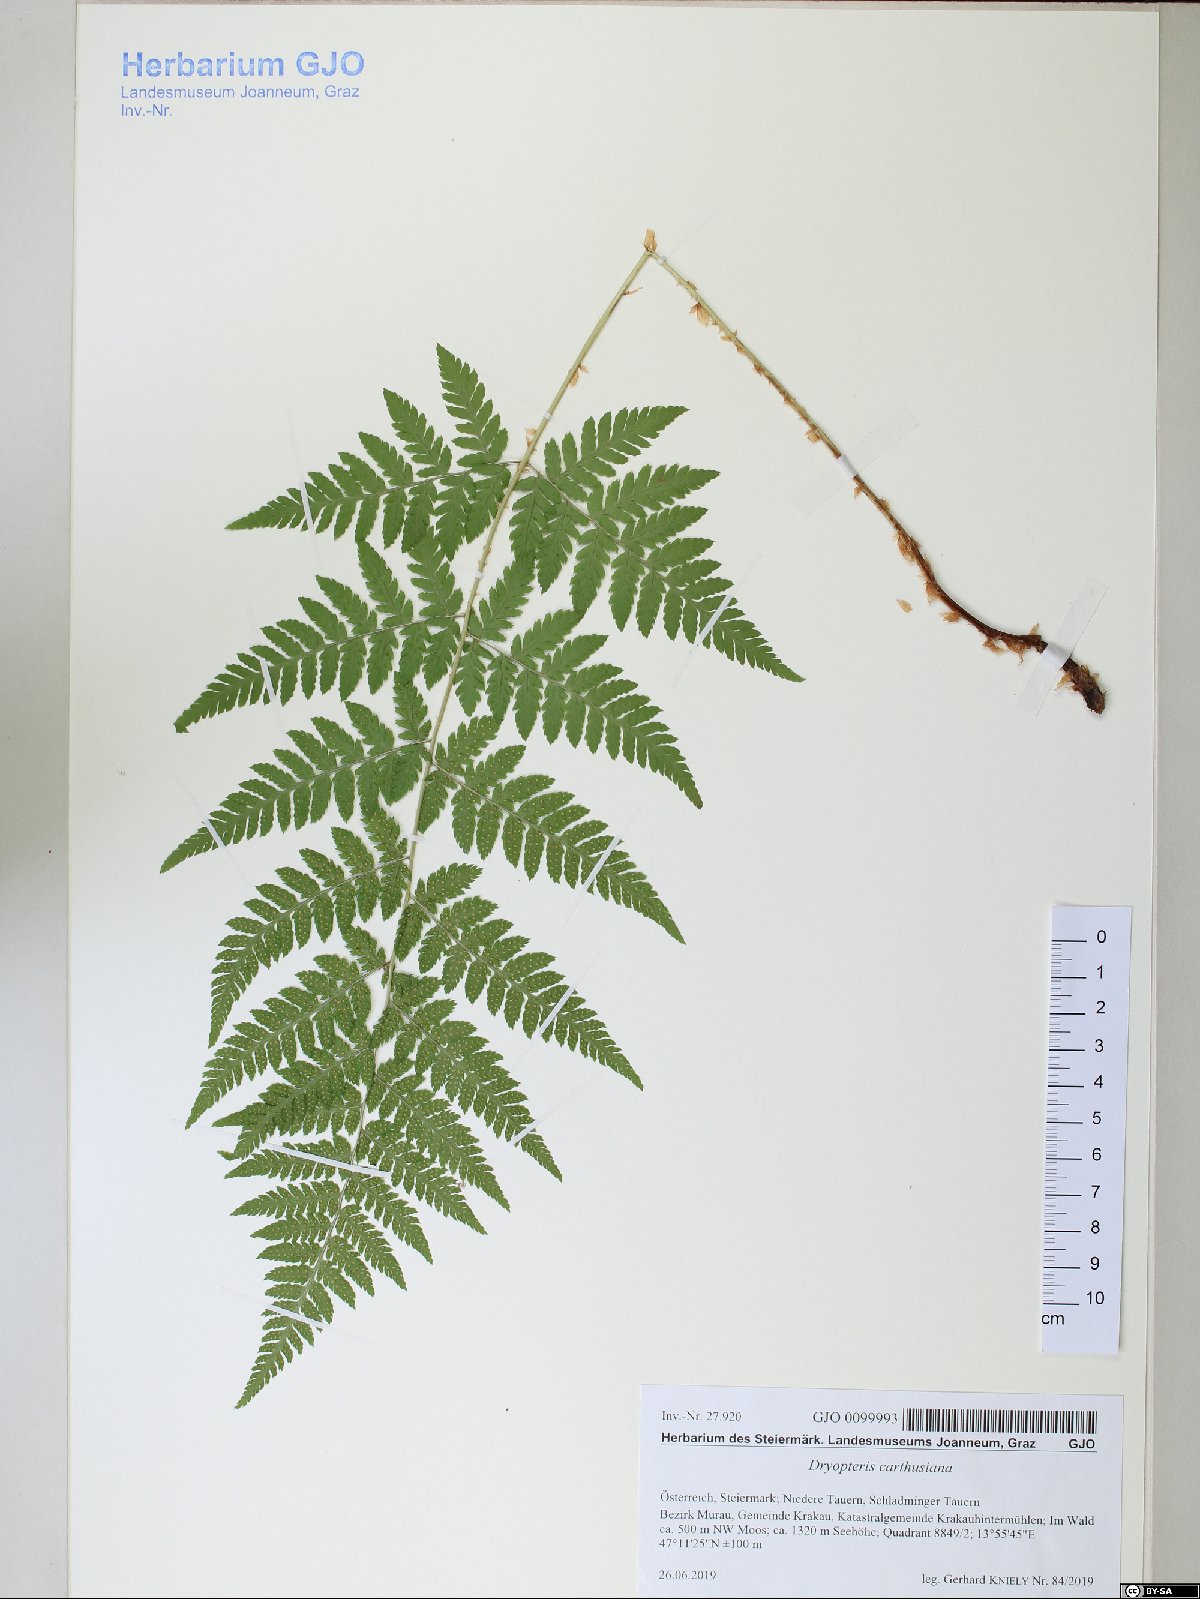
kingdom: Plantae
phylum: Tracheophyta
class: Polypodiopsida
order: Polypodiales
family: Dryopteridaceae
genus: Dryopteris
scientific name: Dryopteris carthusiana
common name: Narrow buckler-fern
